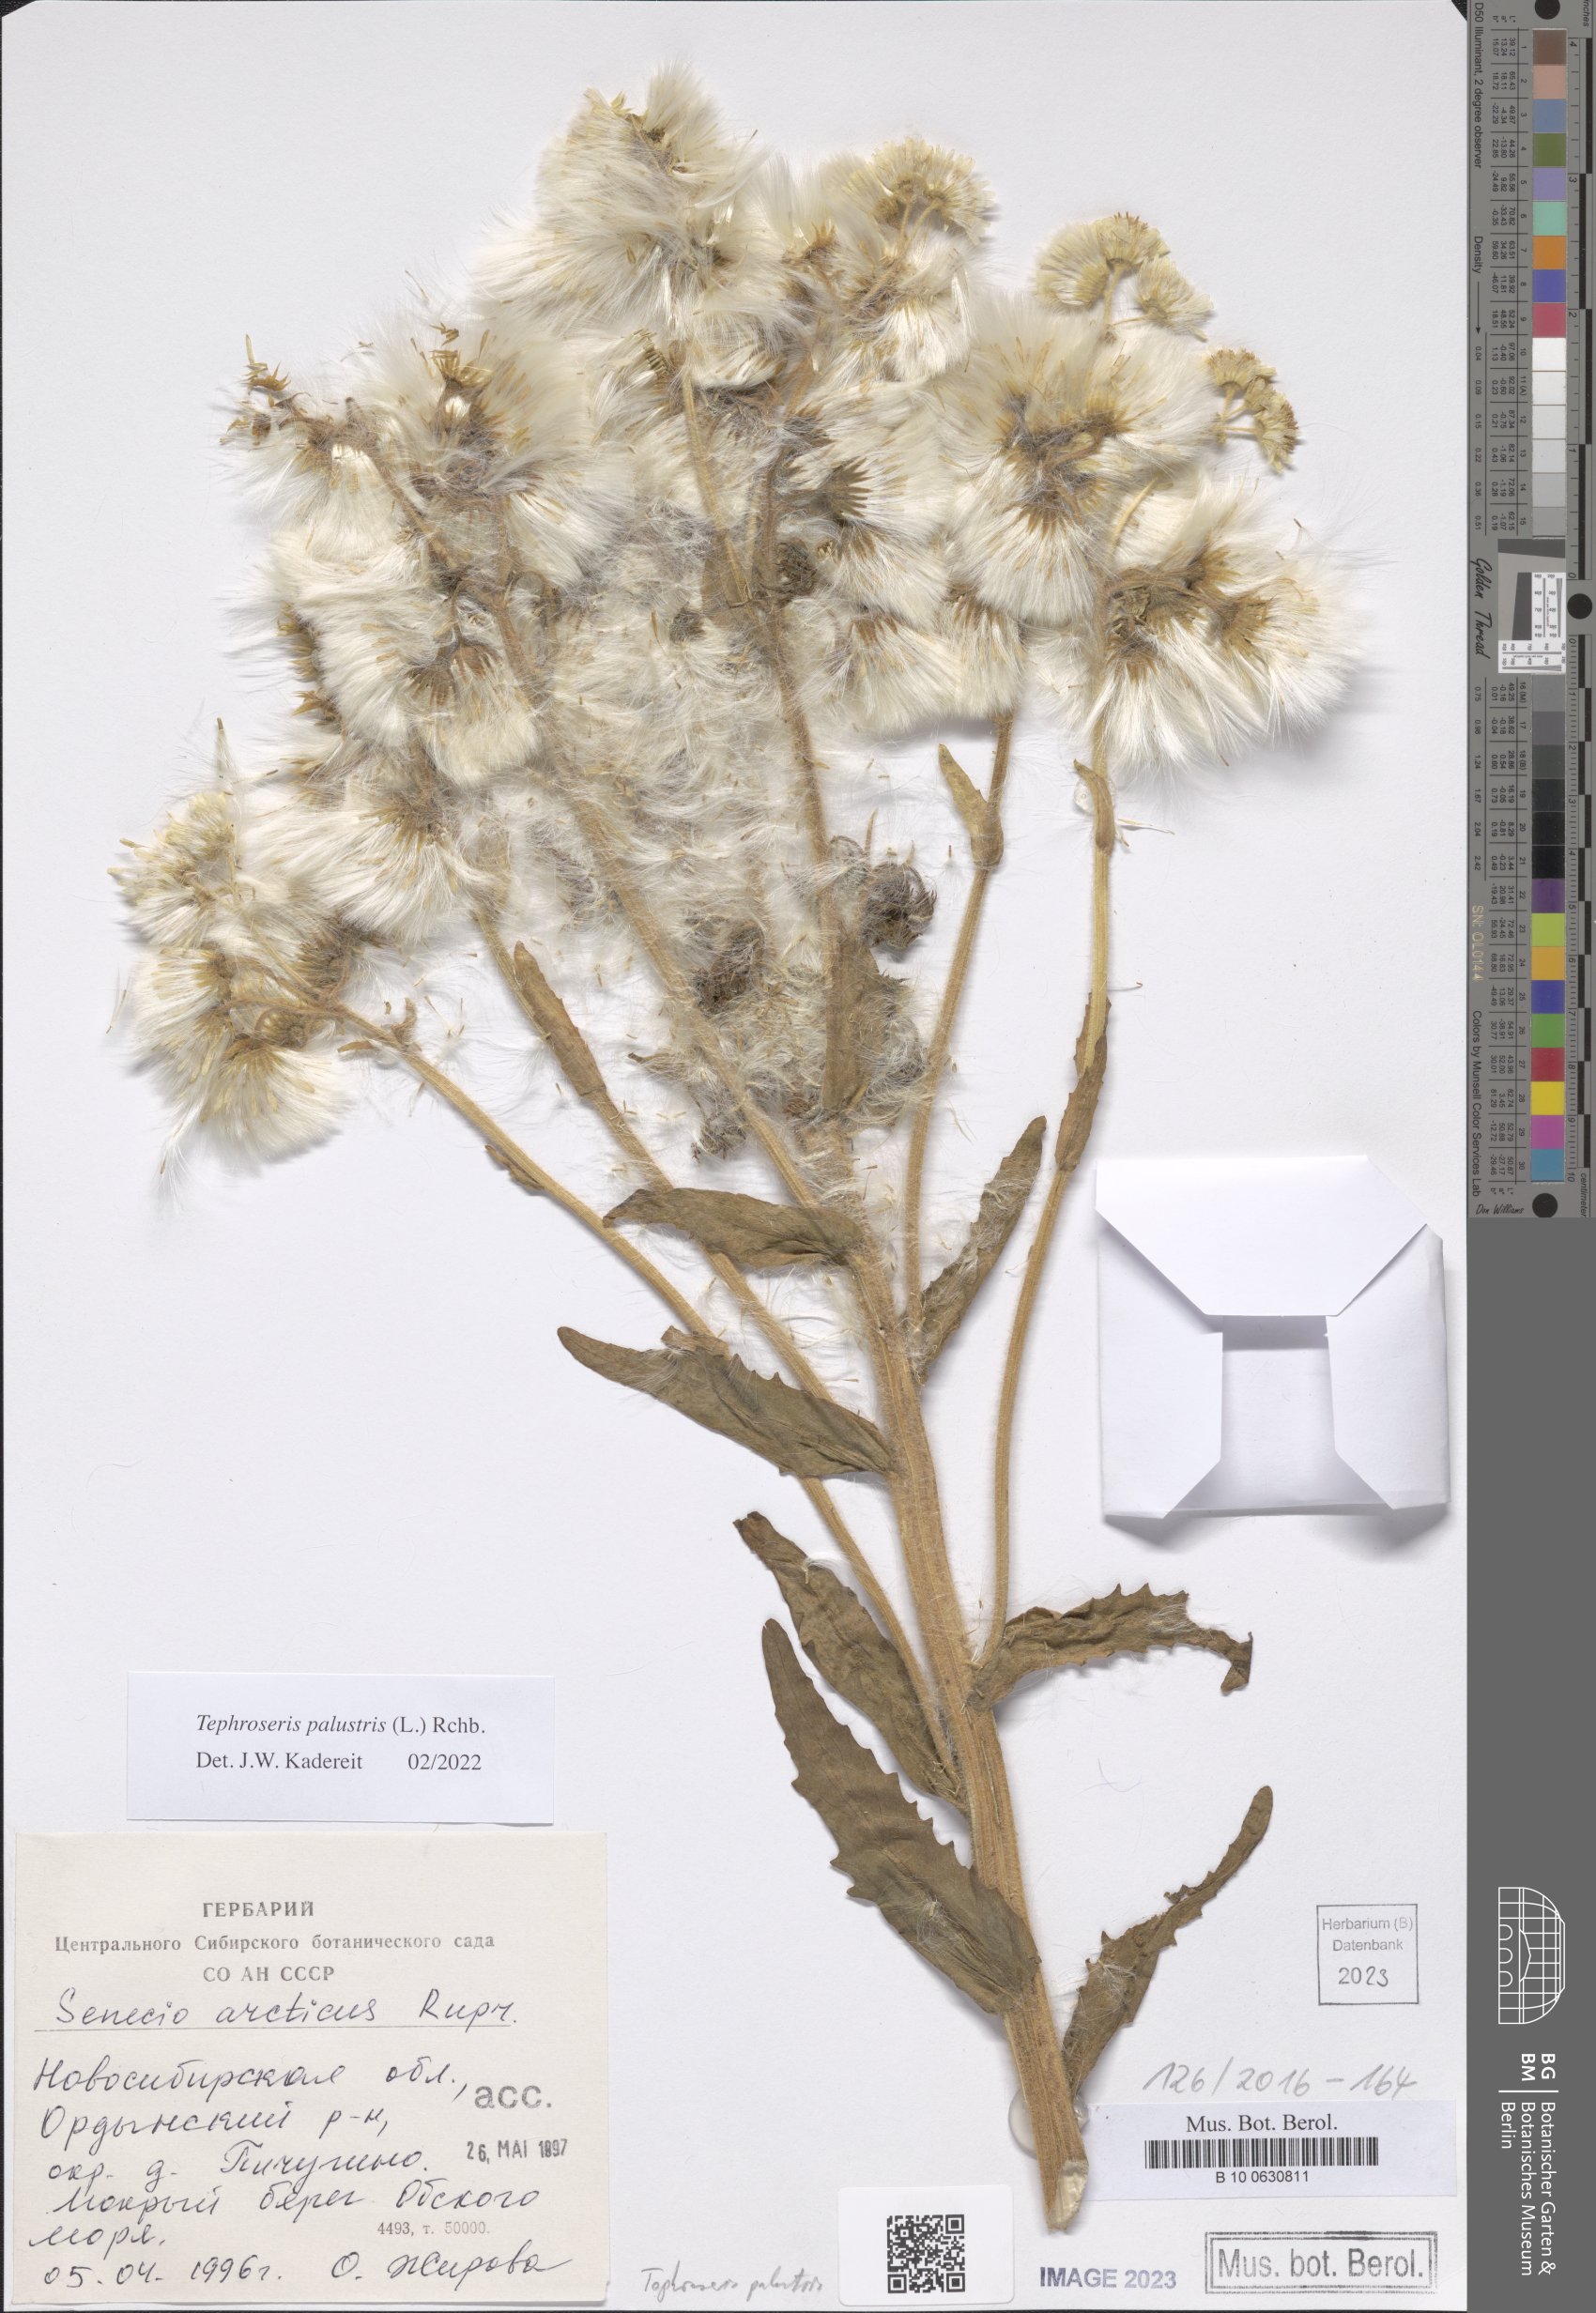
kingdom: Plantae
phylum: Tracheophyta
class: Magnoliopsida
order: Asterales
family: Asteraceae
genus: Tephroseris
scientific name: Tephroseris palustris
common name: Marsh fleawort
